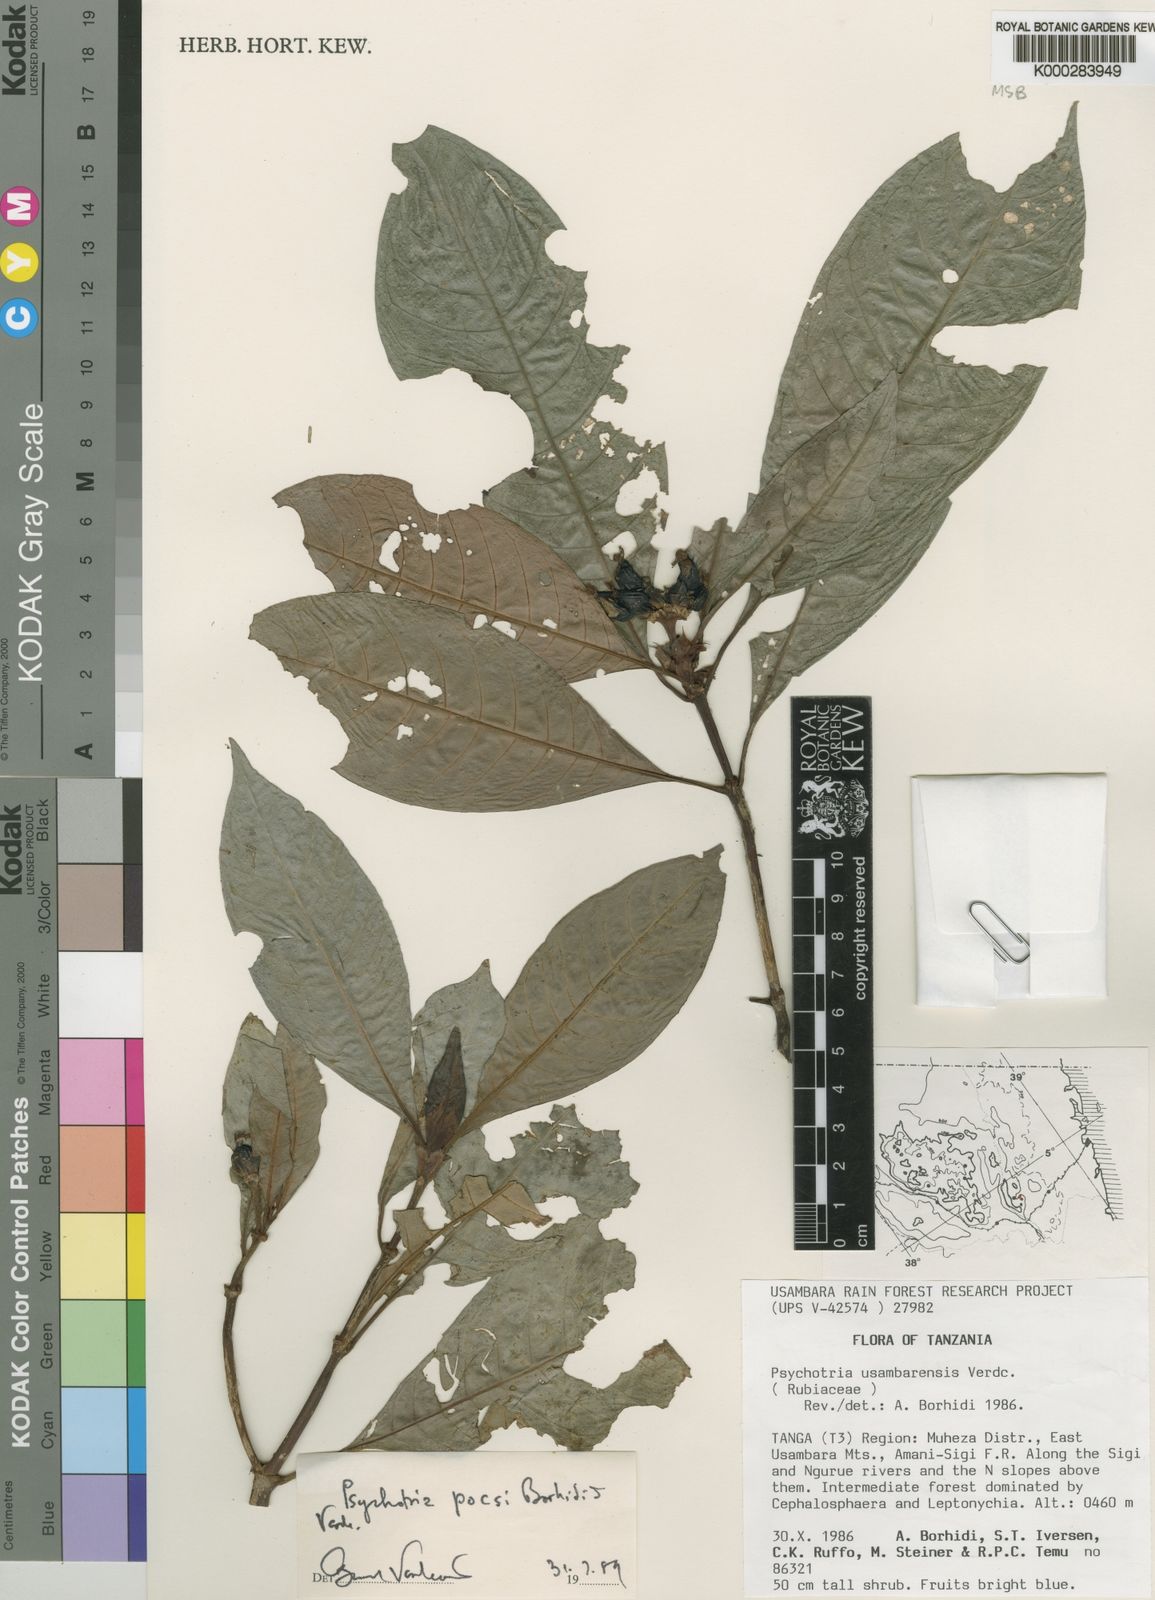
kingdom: Plantae
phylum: Tracheophyta
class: Magnoliopsida
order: Gentianales
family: Rubiaceae
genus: Psychotria
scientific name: Psychotria pocsii
